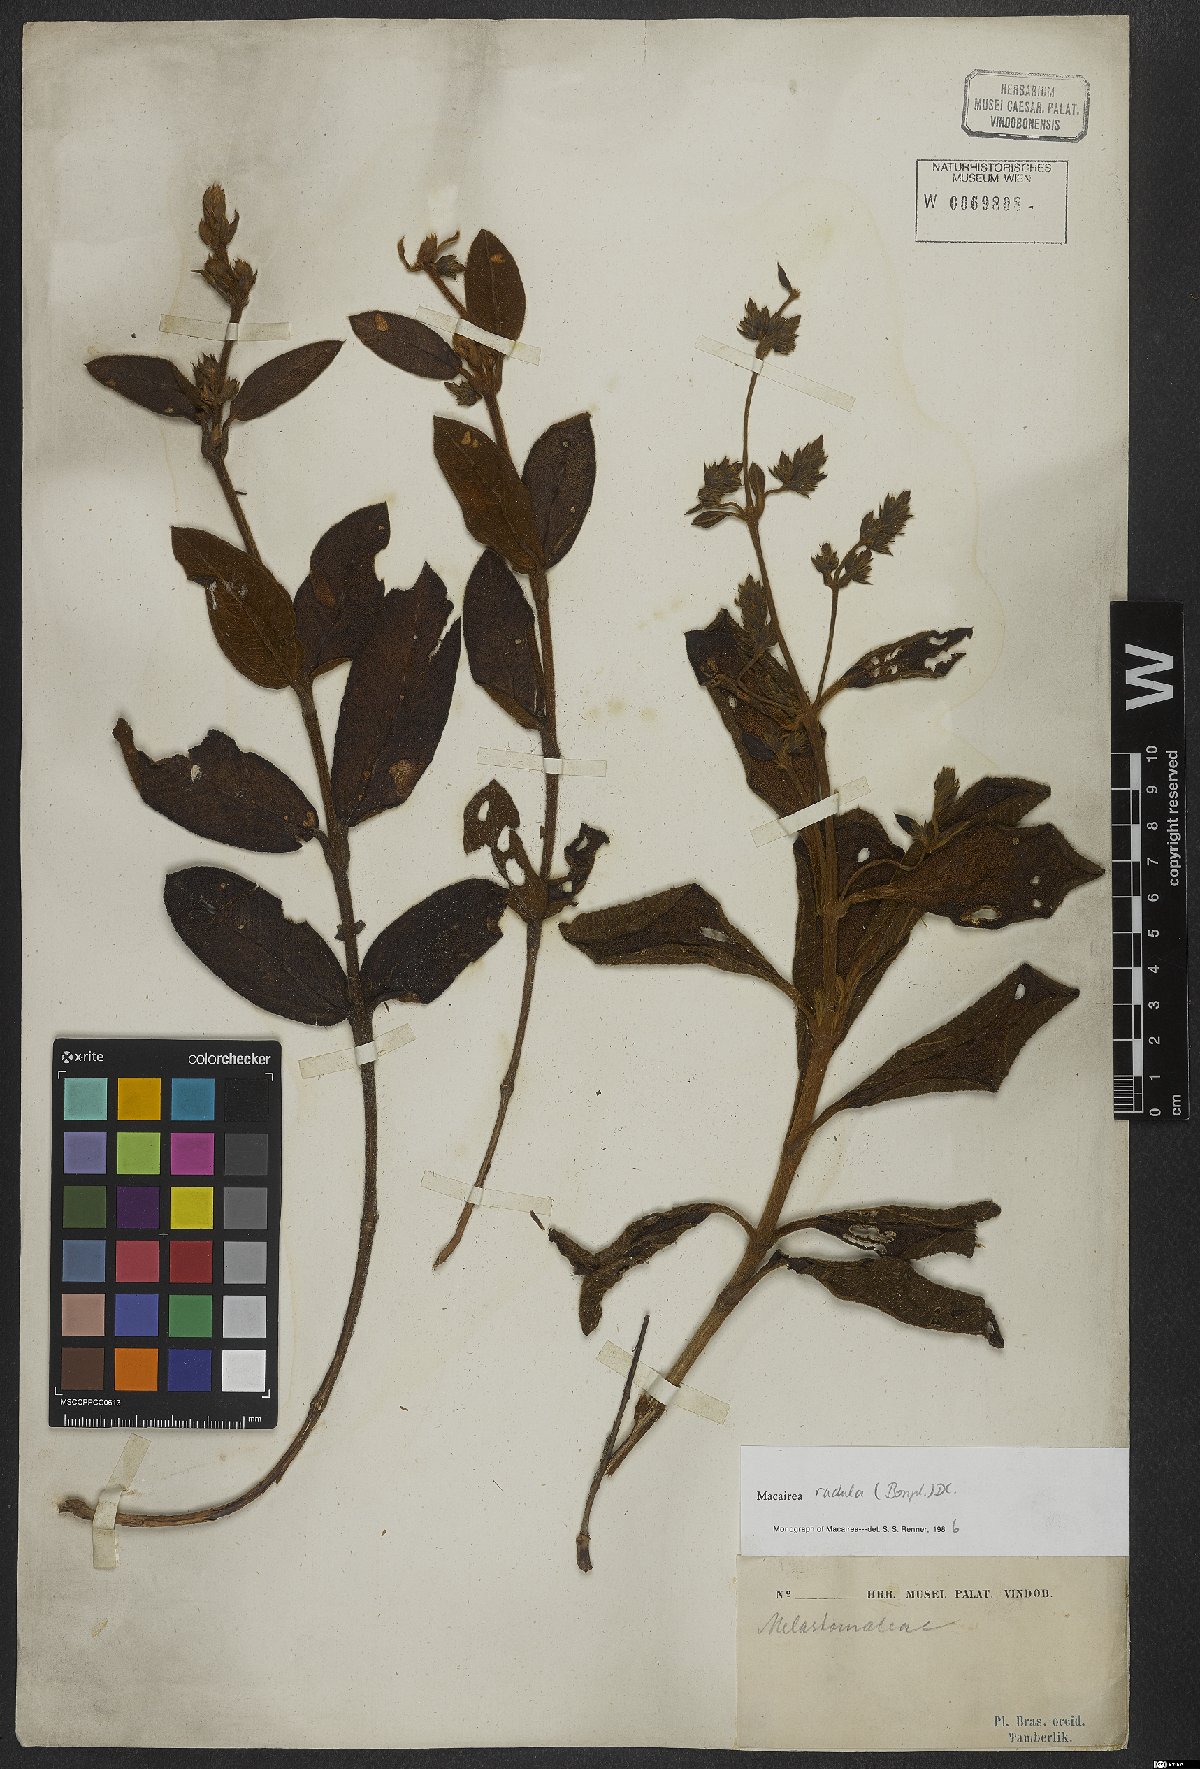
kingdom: Plantae
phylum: Tracheophyta
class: Magnoliopsida
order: Myrtales
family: Melastomataceae
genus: Macairea
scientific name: Macairea radula
